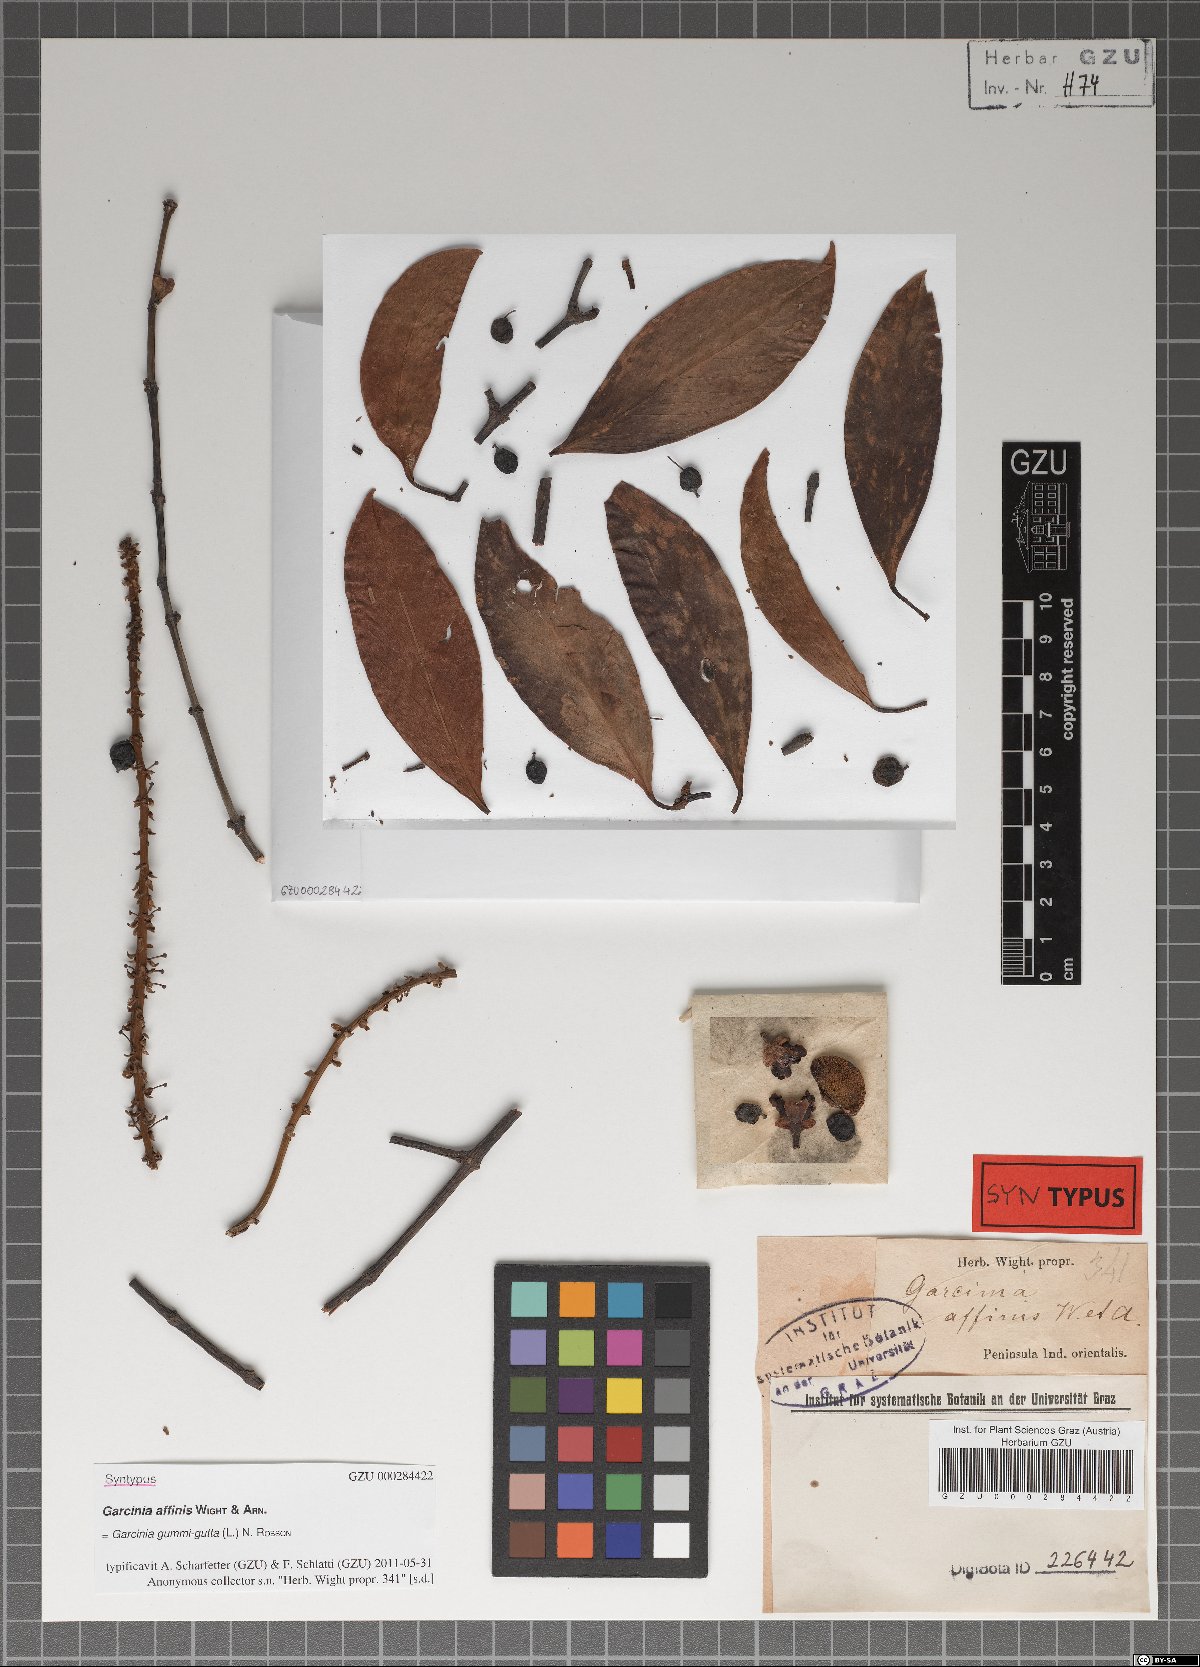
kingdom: Plantae
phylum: Tracheophyta
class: Magnoliopsida
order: Malpighiales
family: Clusiaceae
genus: Garcinia
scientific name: Garcinia gummi-gutta
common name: Malabar tamarind
